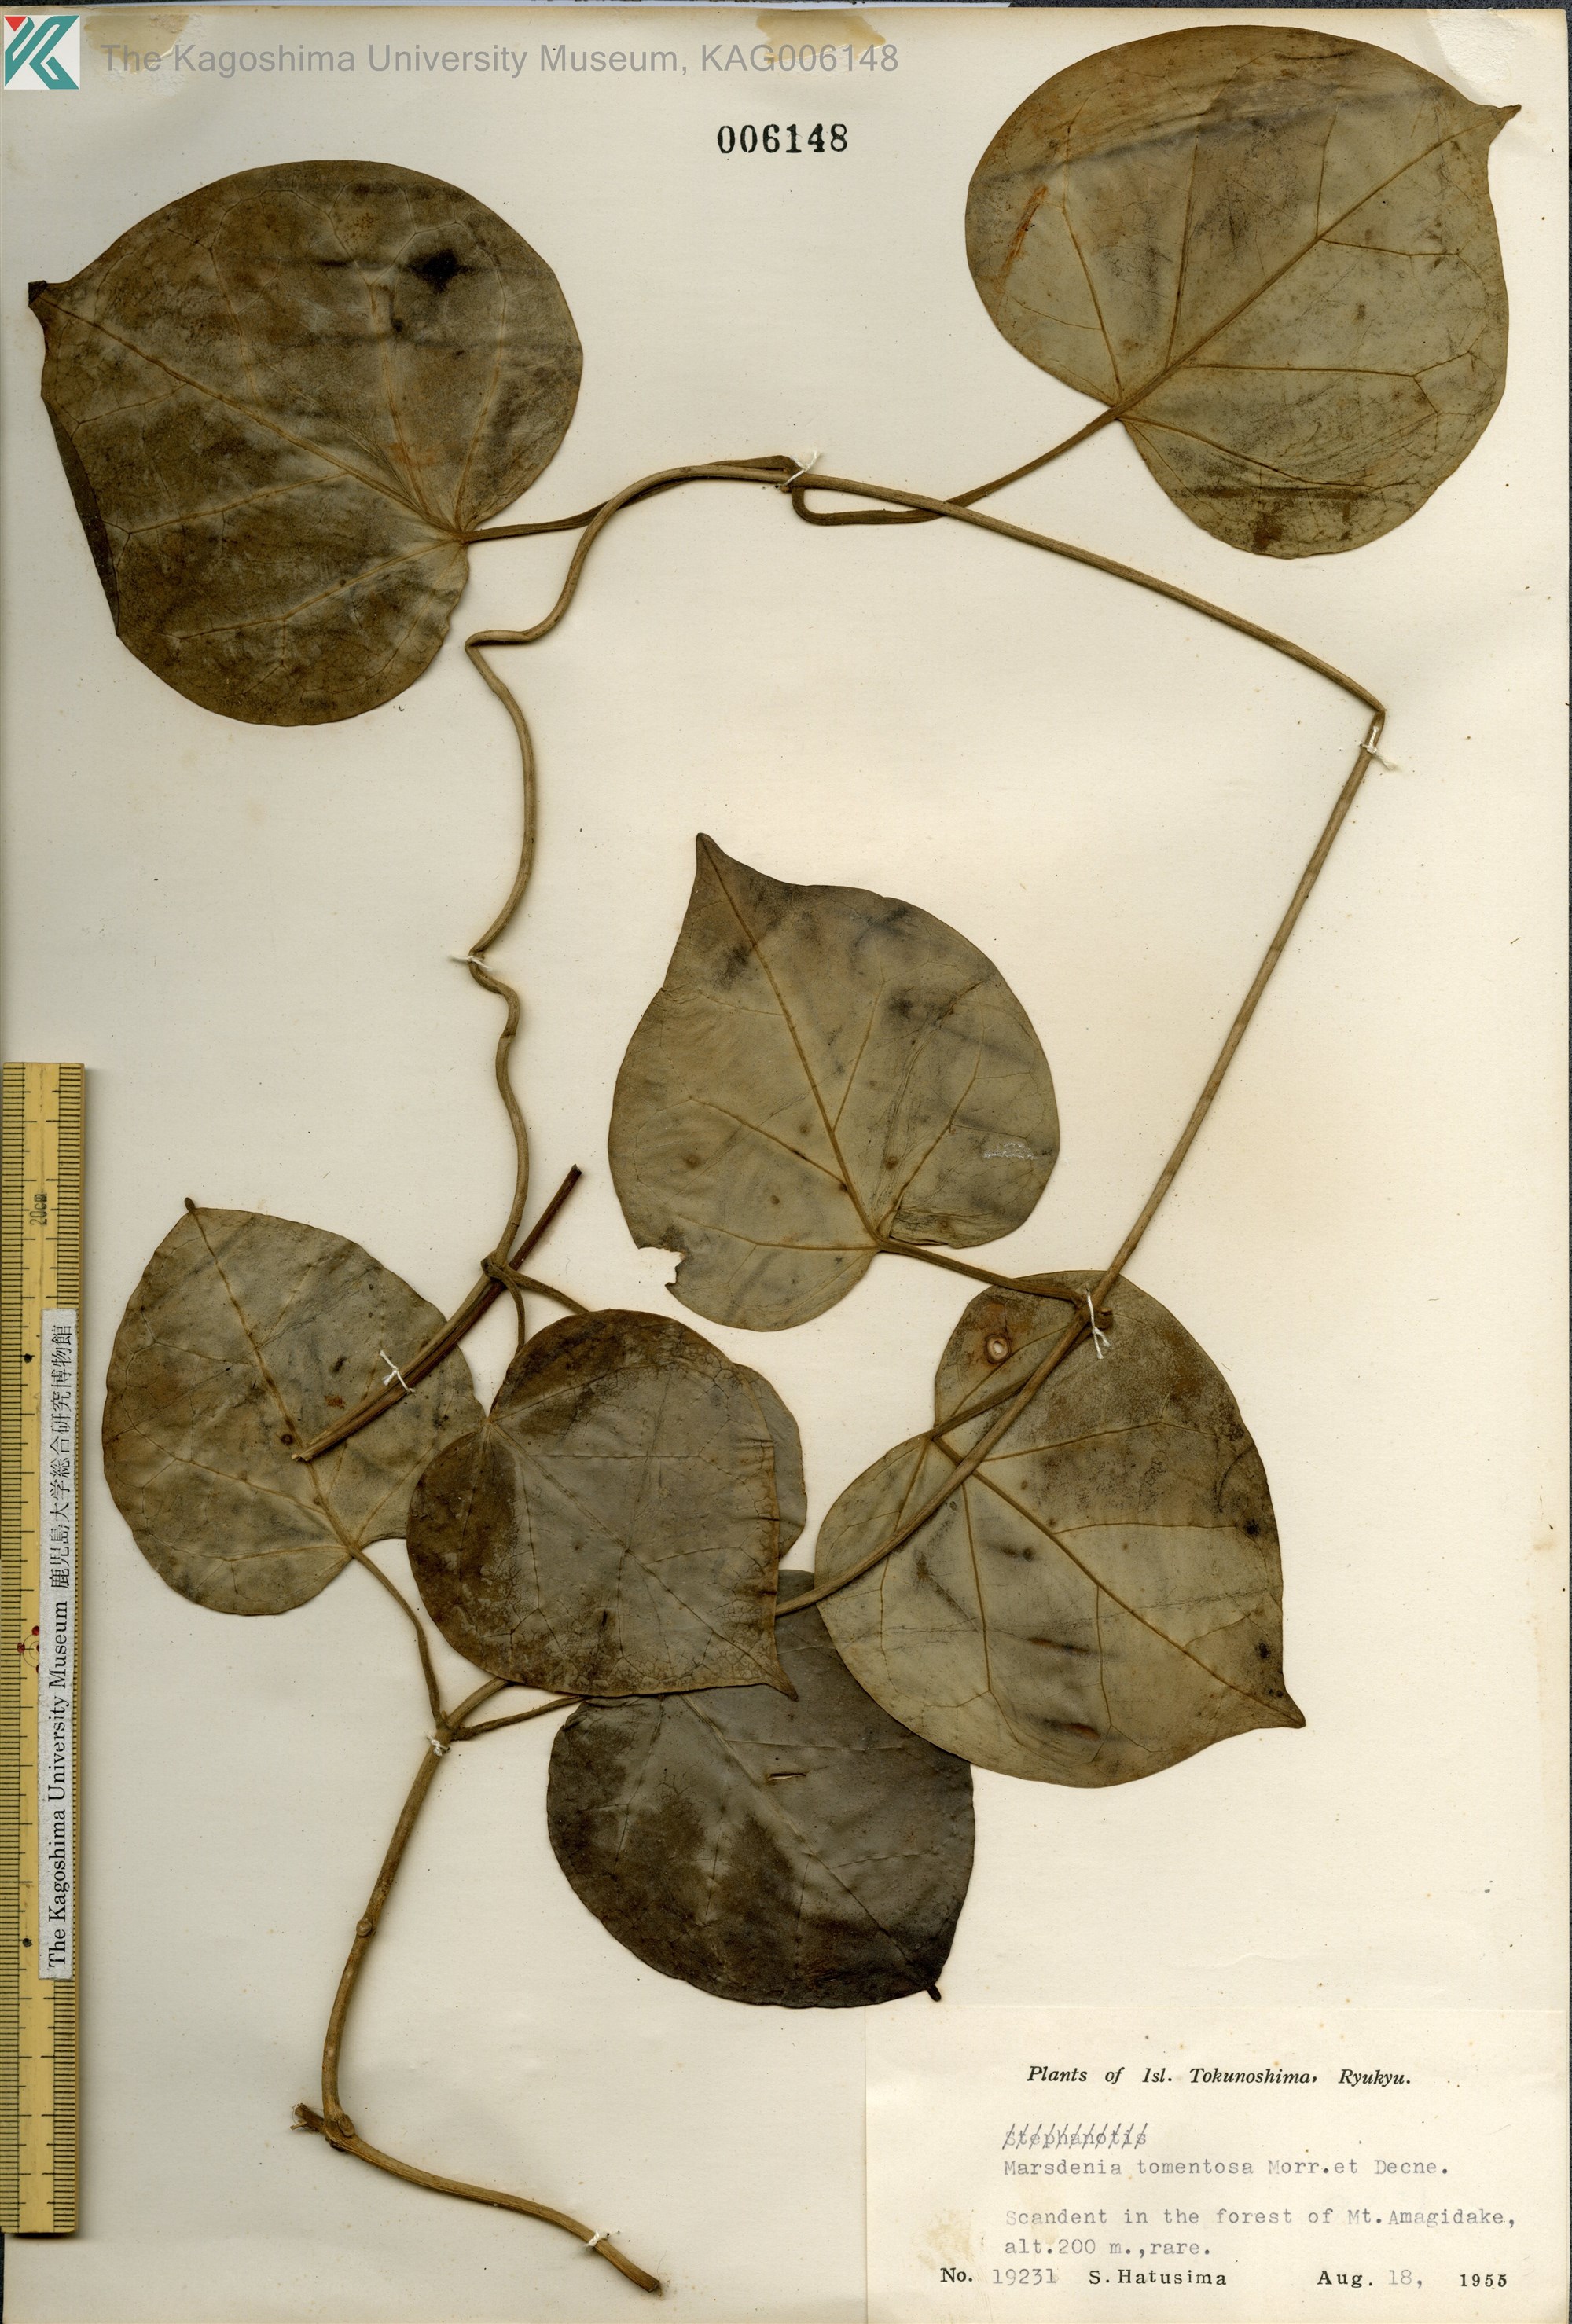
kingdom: Plantae
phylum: Tracheophyta
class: Magnoliopsida
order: Gentianales
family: Apocynaceae
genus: Sinomarsdenia
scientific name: Sinomarsdenia tomentosa
